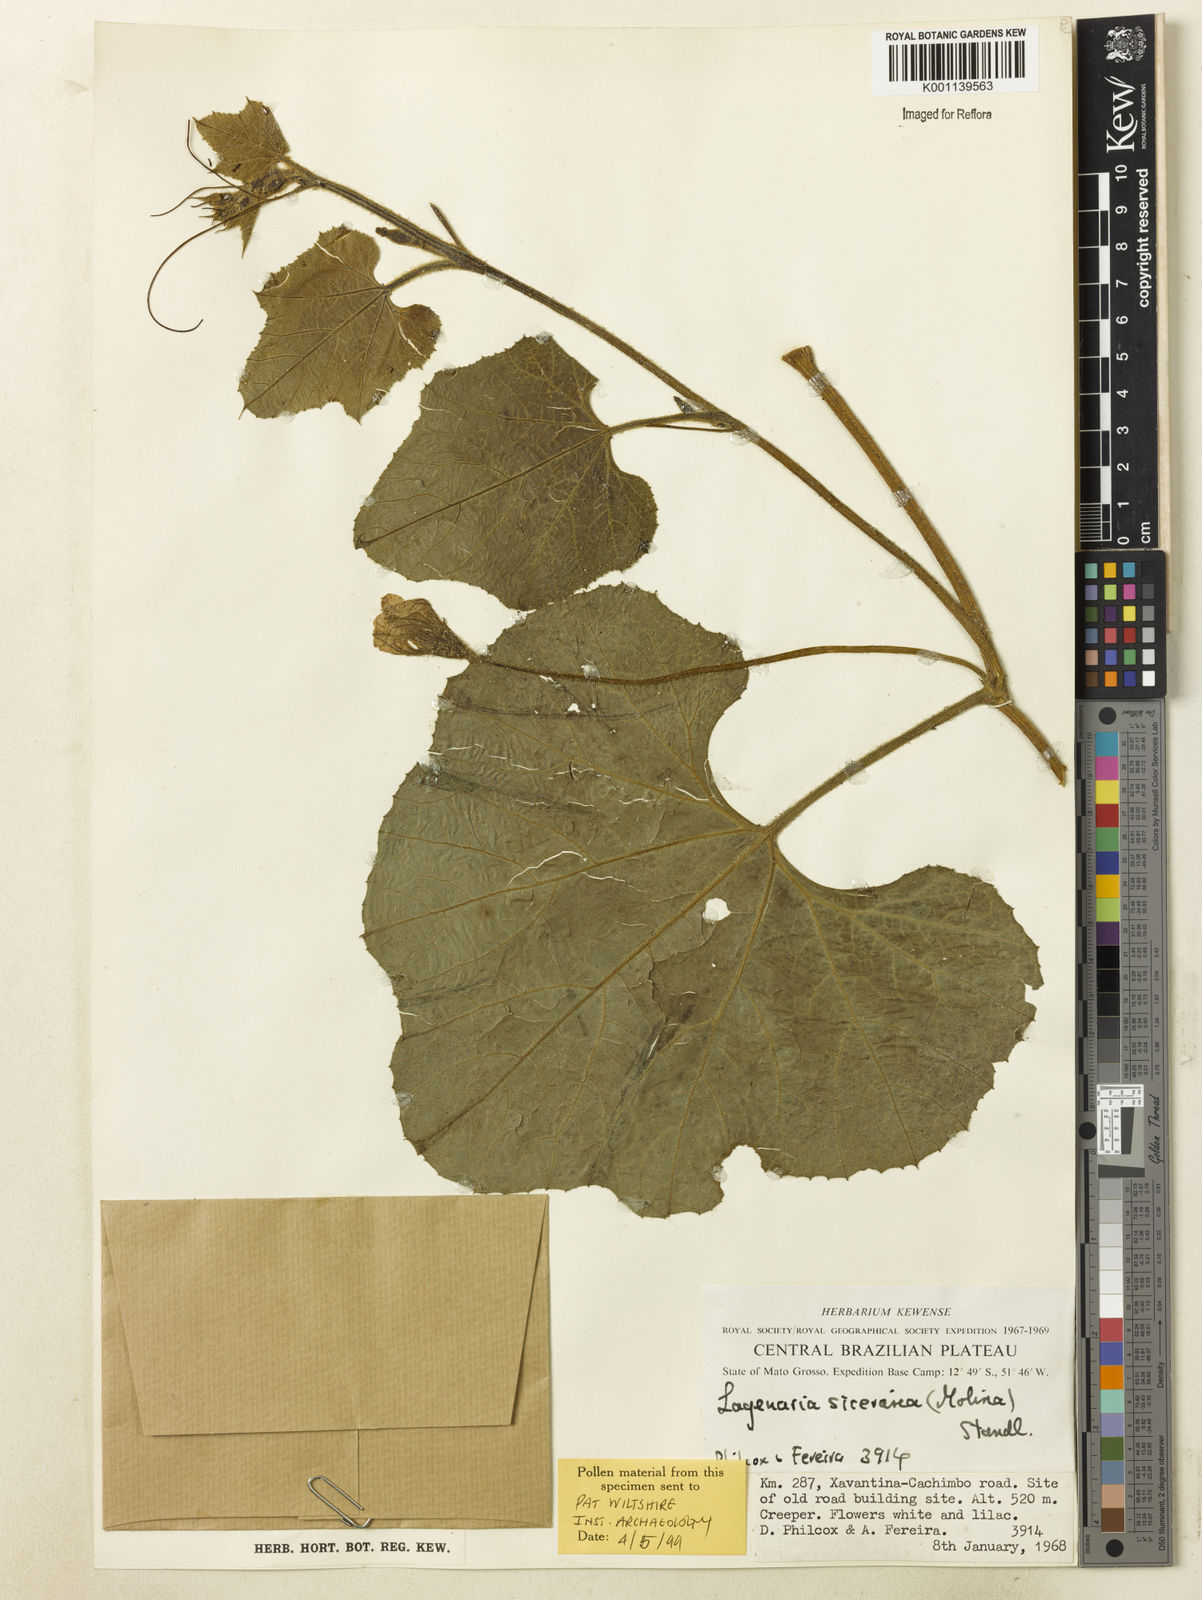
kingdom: Plantae
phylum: Tracheophyta
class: Magnoliopsida
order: Cucurbitales
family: Cucurbitaceae
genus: Lagenaria
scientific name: Lagenaria siceraria
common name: Bottle gourd
